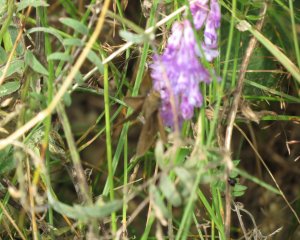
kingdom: Animalia
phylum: Arthropoda
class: Insecta
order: Lepidoptera
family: Hesperiidae
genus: Euphyes
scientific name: Euphyes vestris
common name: Dun Skipper
